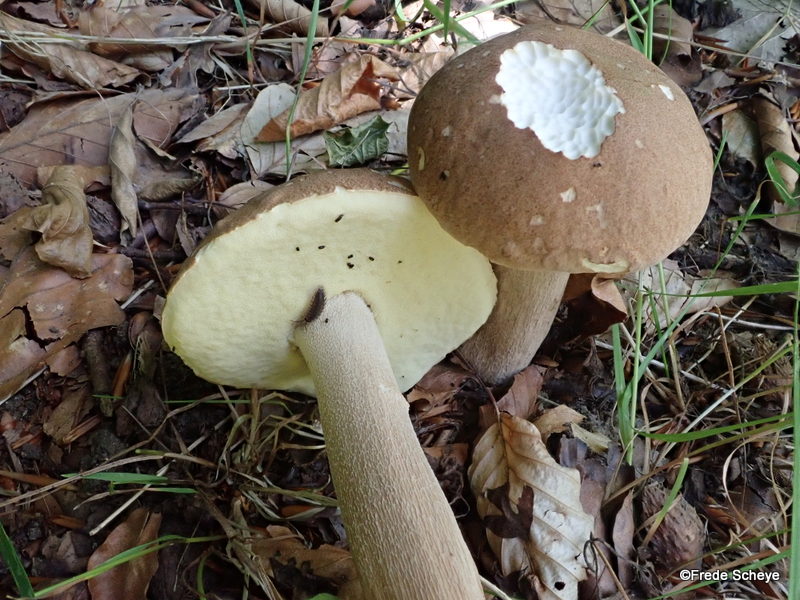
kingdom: Fungi
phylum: Basidiomycota
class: Agaricomycetes
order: Boletales
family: Boletaceae
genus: Boletus
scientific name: Boletus edulis
